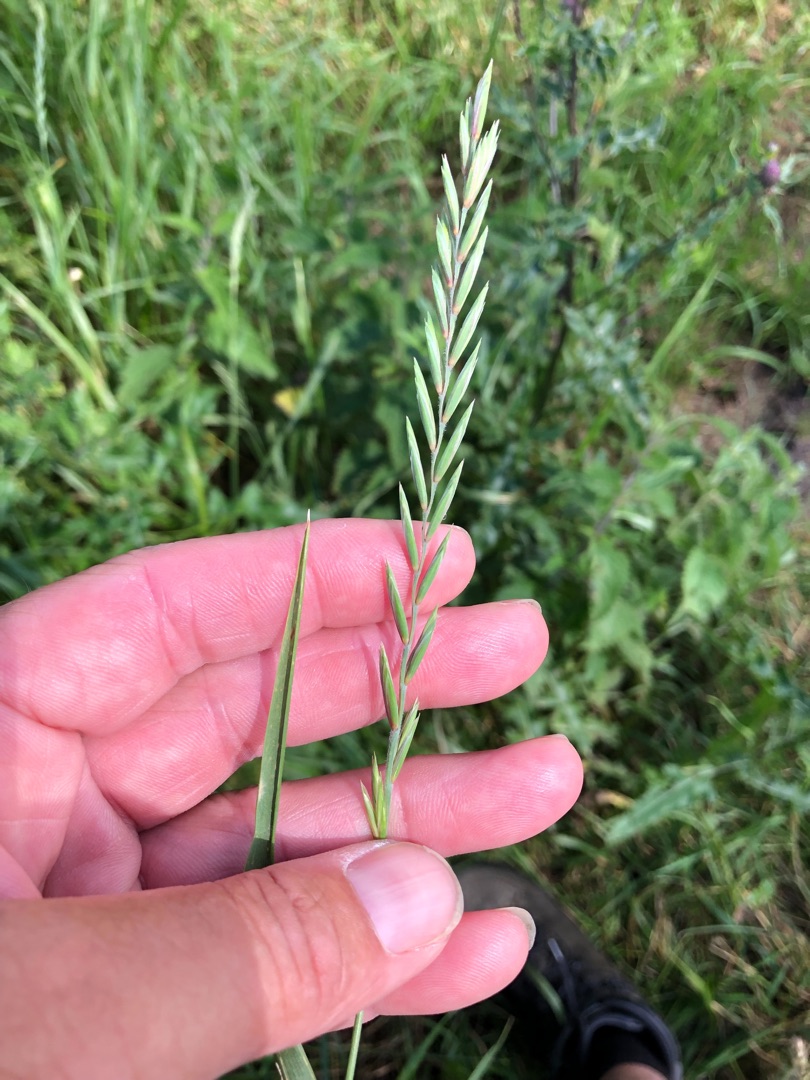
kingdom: Plantae
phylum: Tracheophyta
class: Liliopsida
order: Poales
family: Poaceae
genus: Elymus
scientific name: Elymus repens
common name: Almindelig kvik
